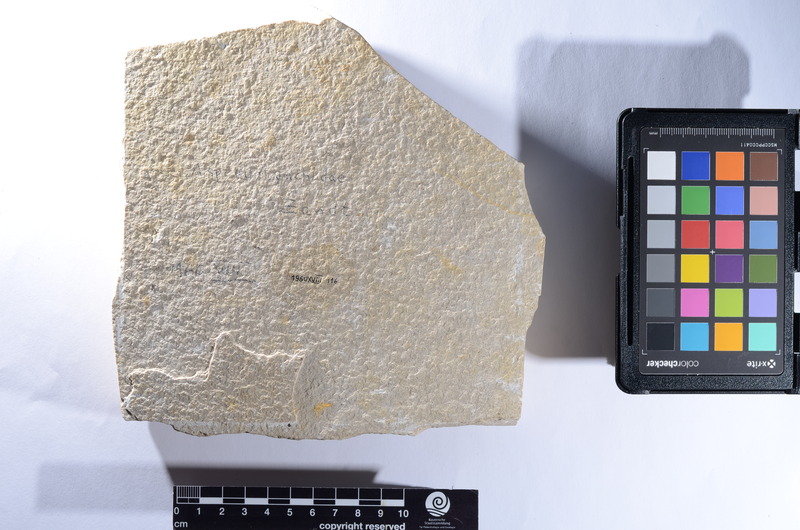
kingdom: Animalia
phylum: Chordata
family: Aspidorhynchidae
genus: Belonostomus
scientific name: Belonostomus
